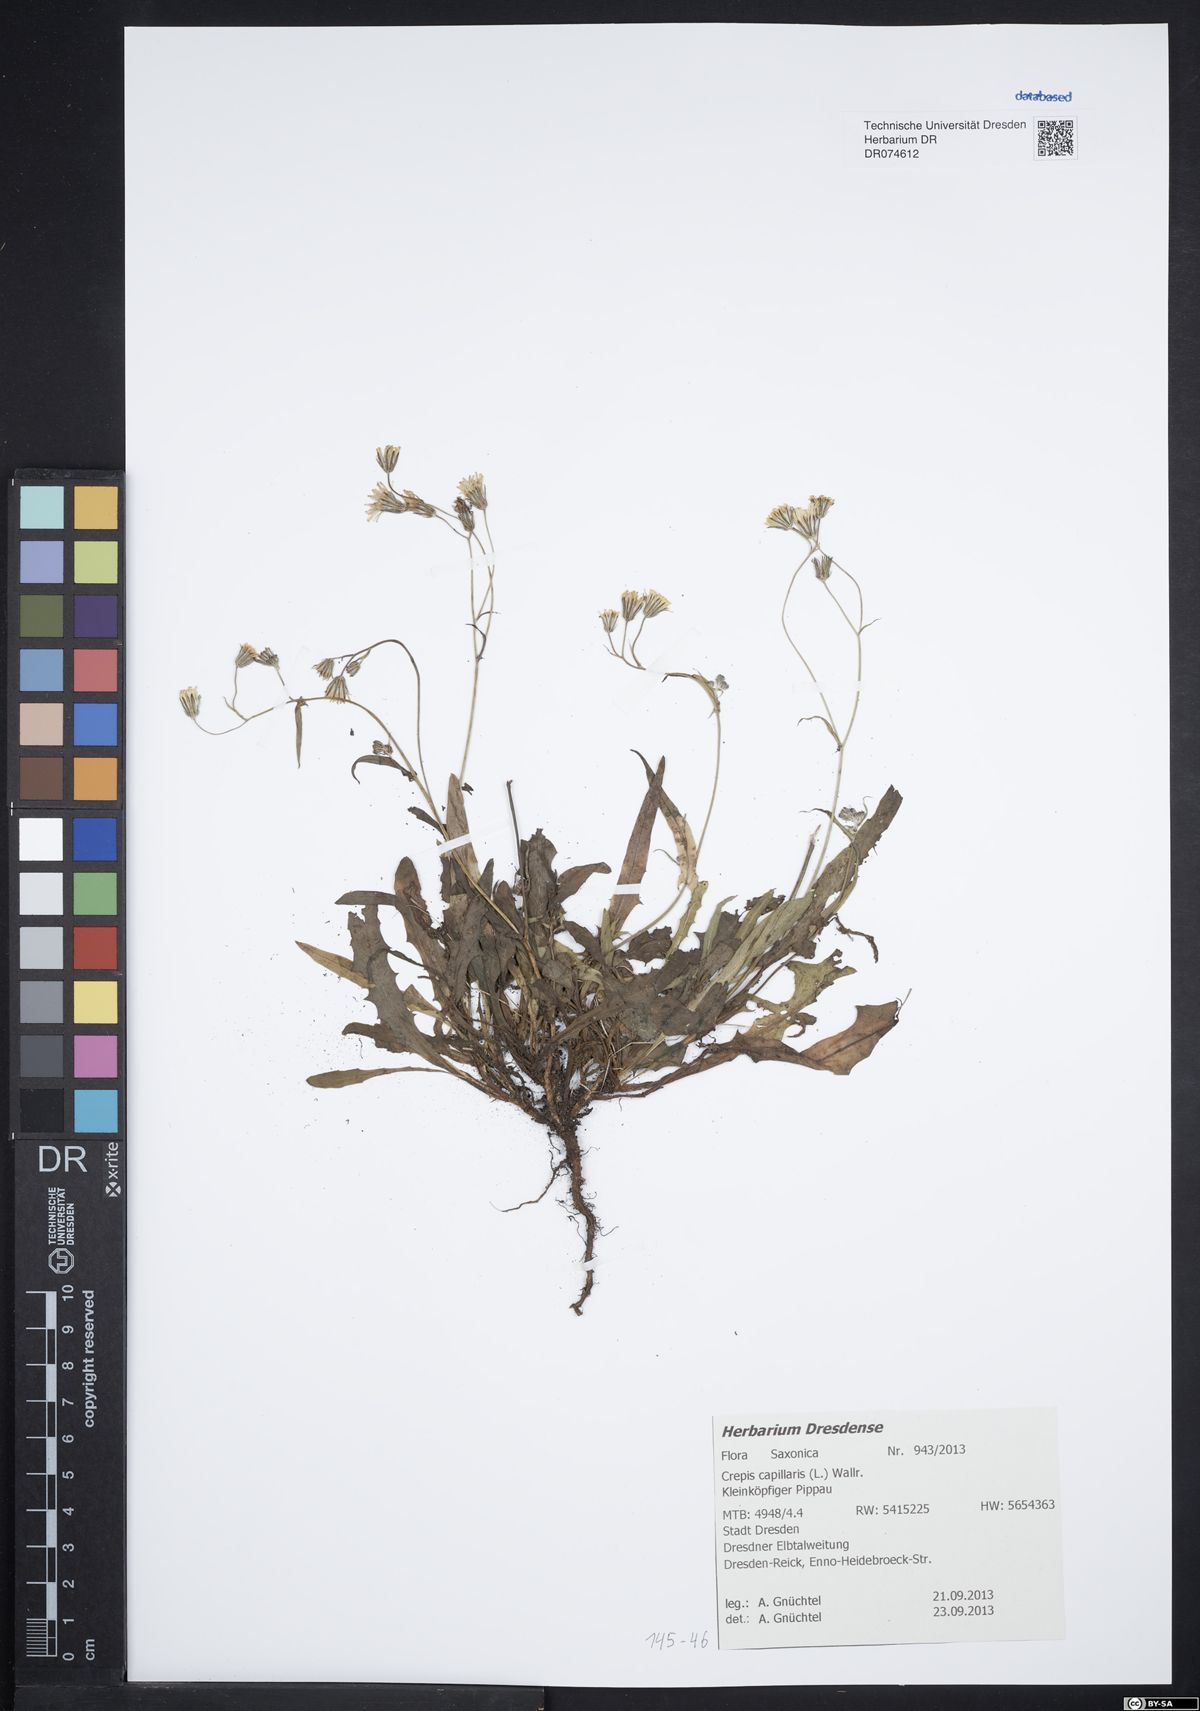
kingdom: Plantae
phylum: Tracheophyta
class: Magnoliopsida
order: Asterales
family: Asteraceae
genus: Crepis
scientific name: Crepis capillaris
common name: Smooth hawksbeard
